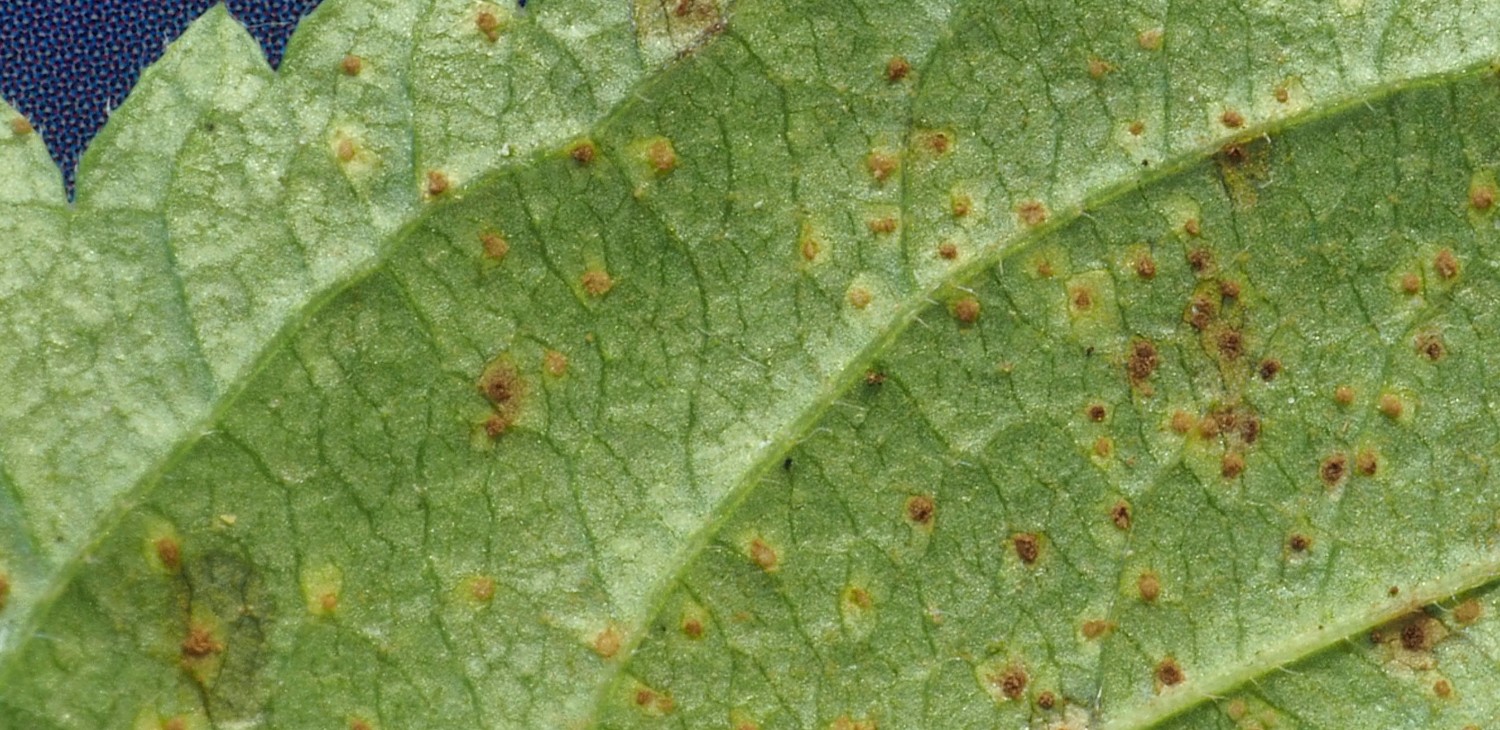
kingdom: Fungi
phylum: Basidiomycota
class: Pucciniomycetes
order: Pucciniales
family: Tranzscheliaceae
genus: Tranzschelia
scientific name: Tranzschelia discolor
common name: Plum rust
